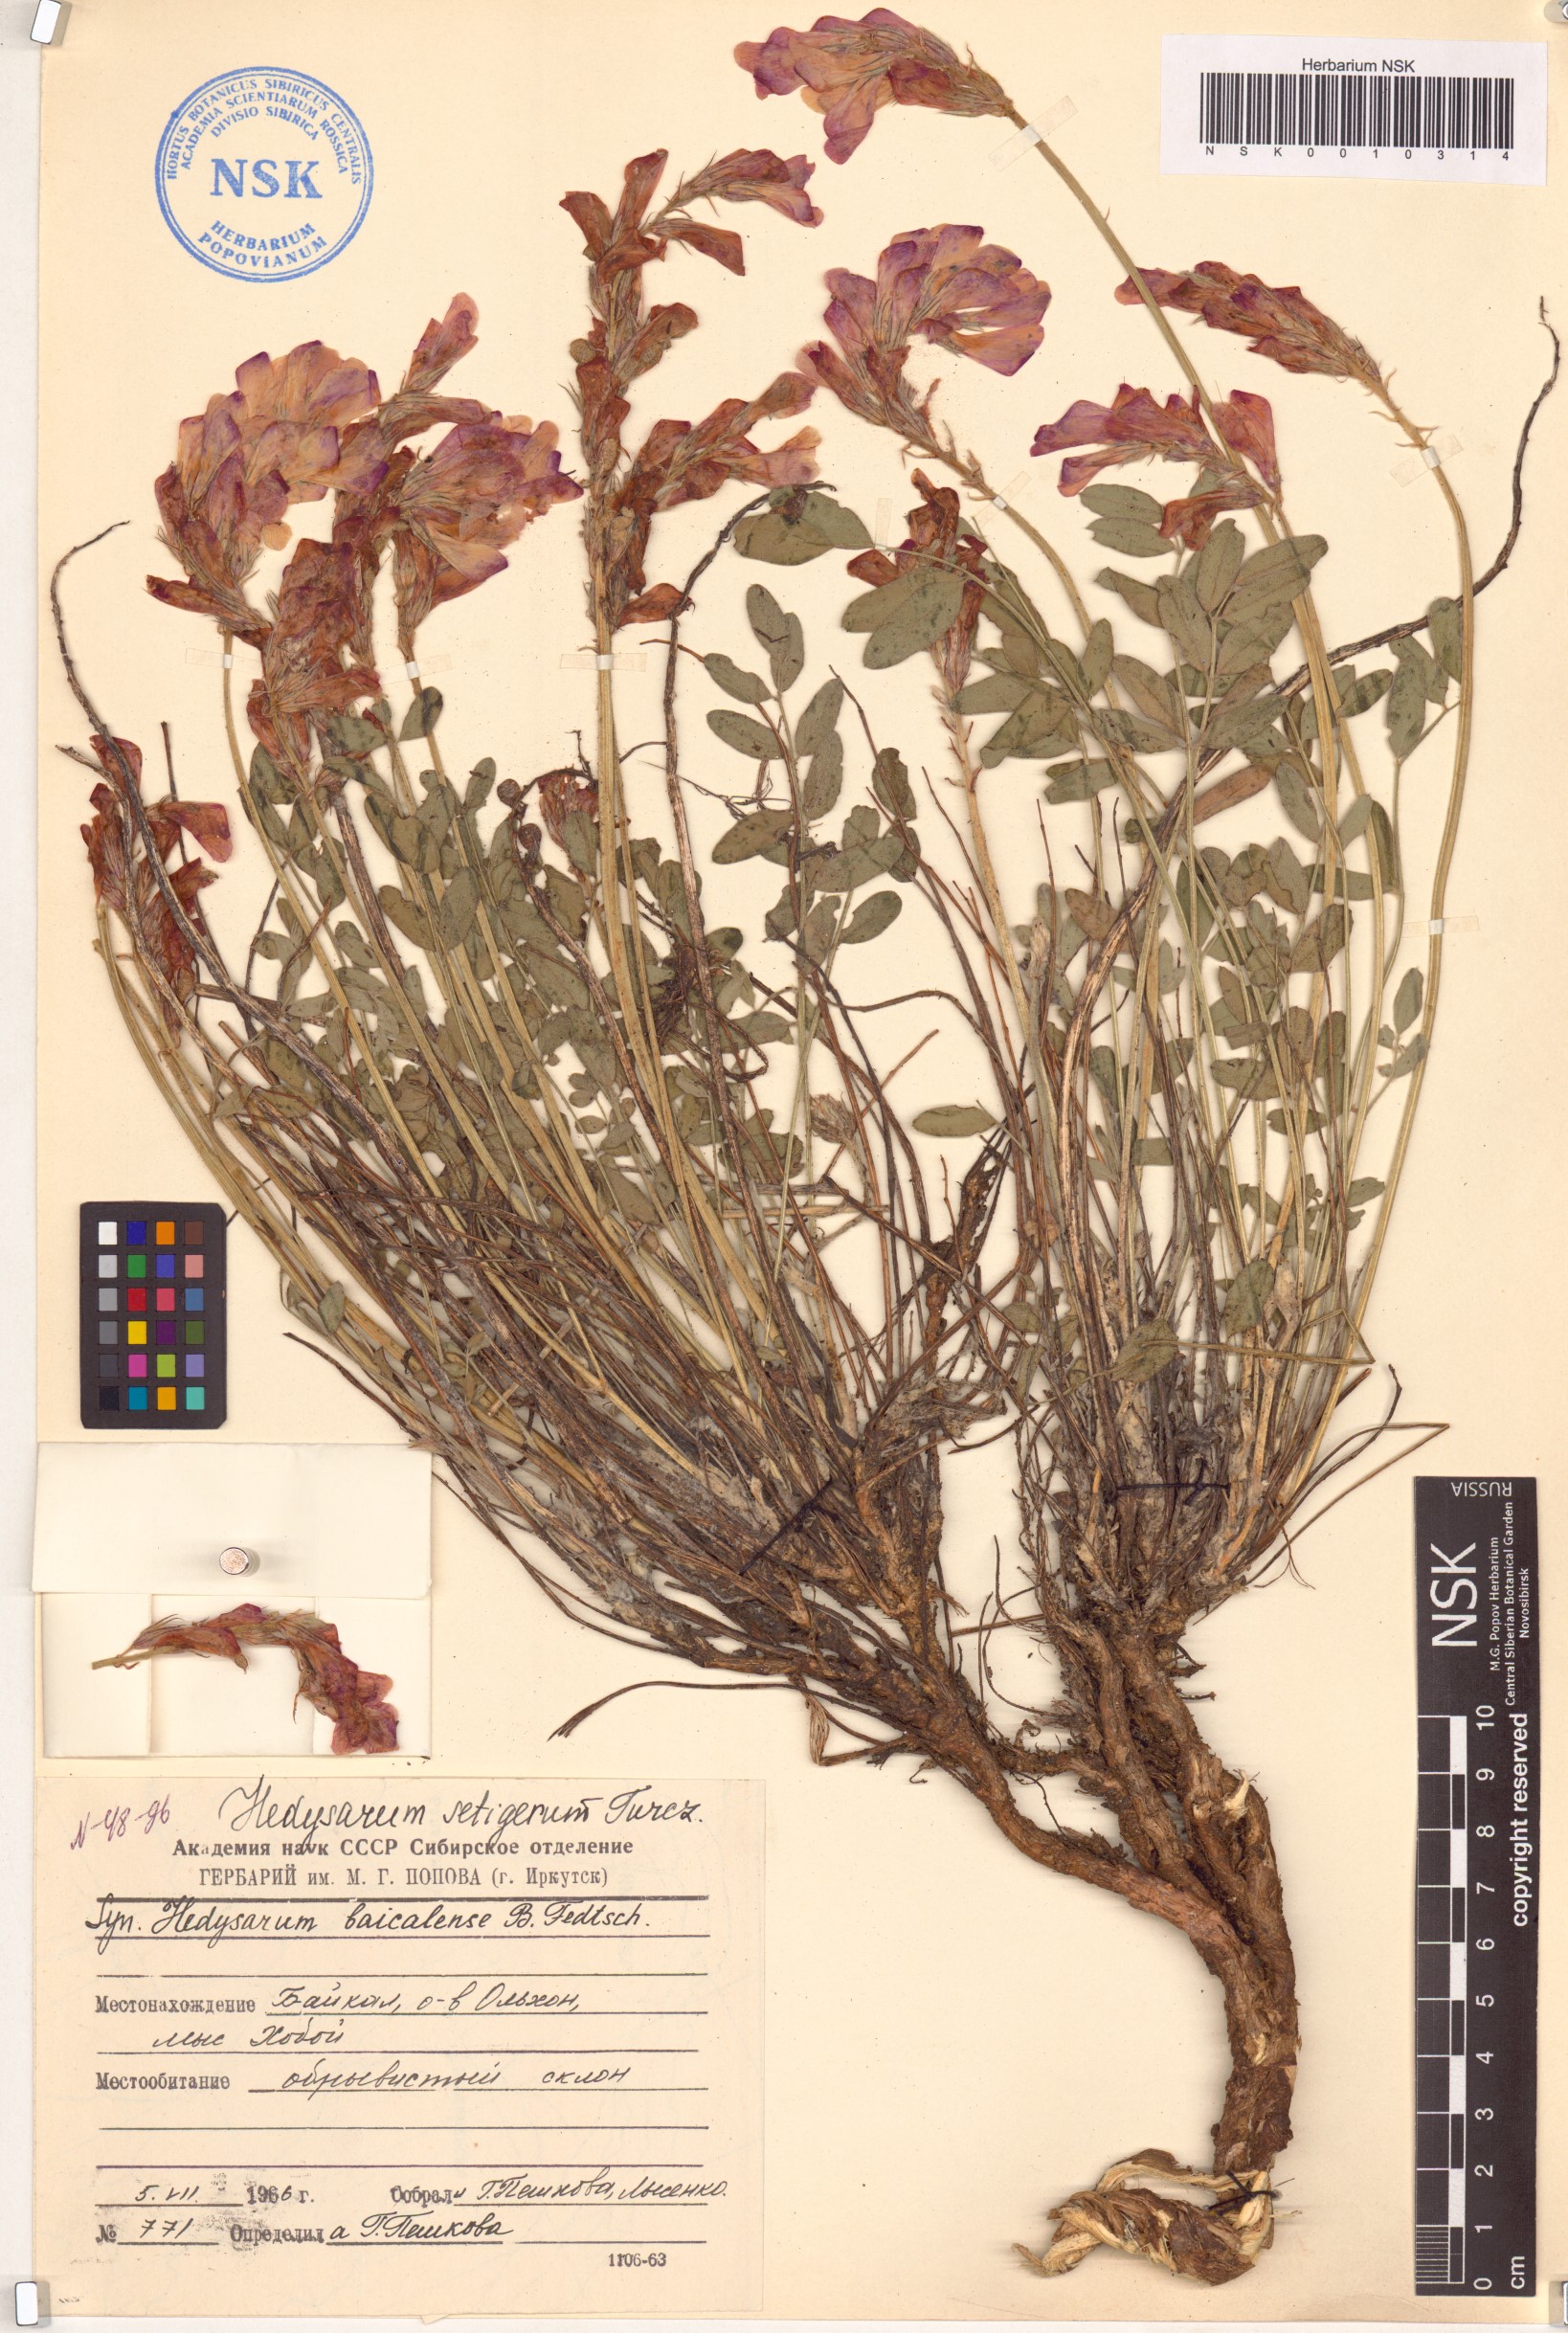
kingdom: Plantae
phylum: Tracheophyta
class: Magnoliopsida
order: Fabales
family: Fabaceae
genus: Hedysarum
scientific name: Hedysarum setigerum
